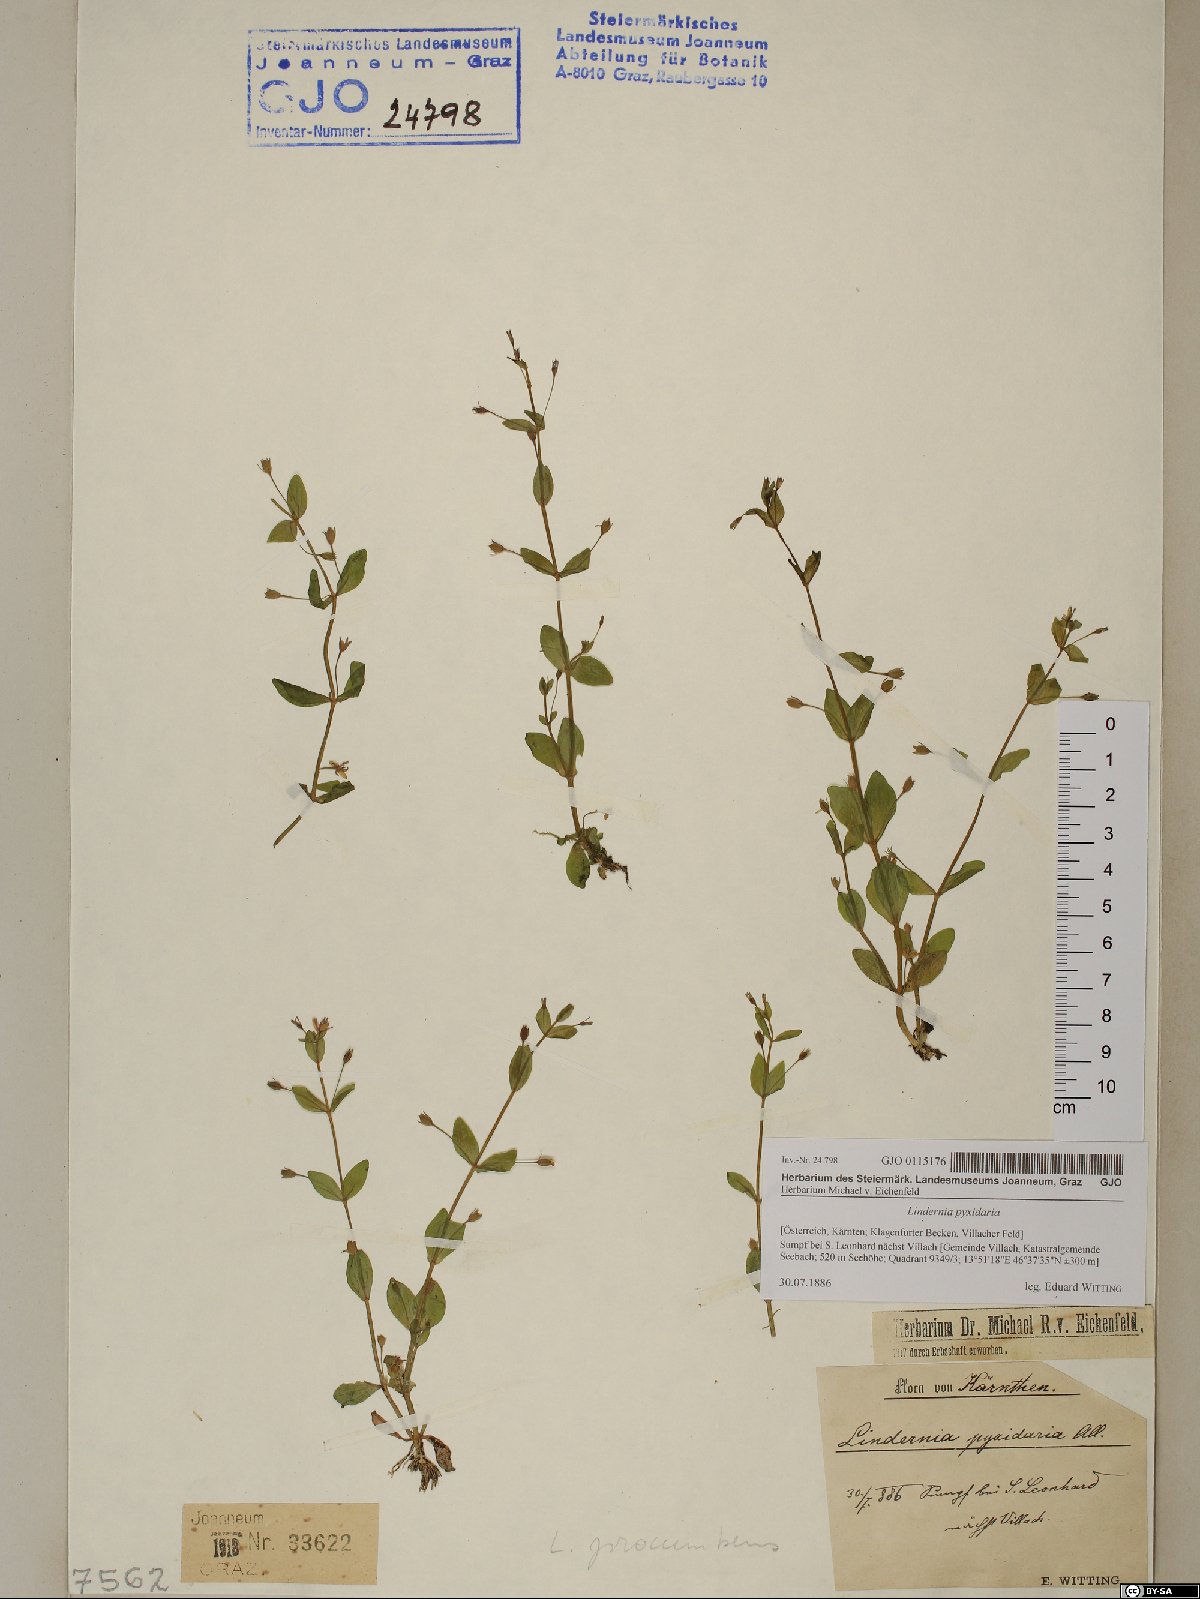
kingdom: Plantae
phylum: Tracheophyta
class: Magnoliopsida
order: Lamiales
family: Linderniaceae
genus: Lindernia
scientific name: Lindernia dubia
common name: Annual false pimpernel
